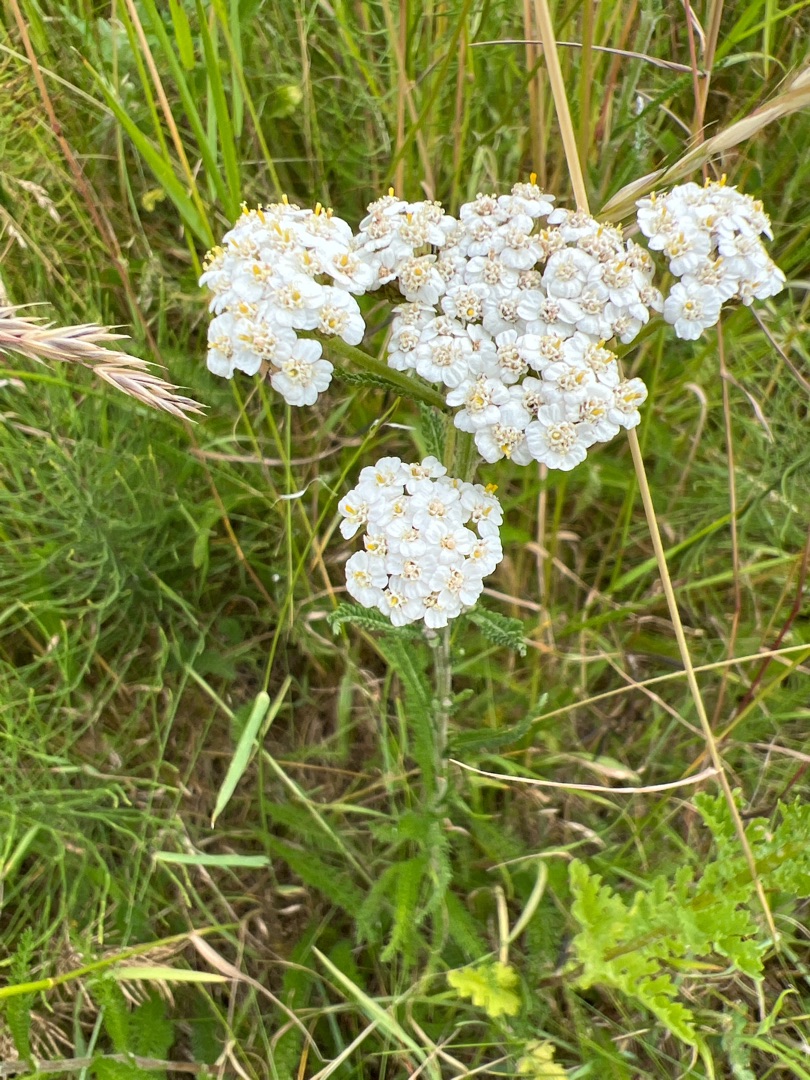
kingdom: Plantae
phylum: Tracheophyta
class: Magnoliopsida
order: Asterales
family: Asteraceae
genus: Achillea
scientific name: Achillea millefolium
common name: Almindelig røllike
